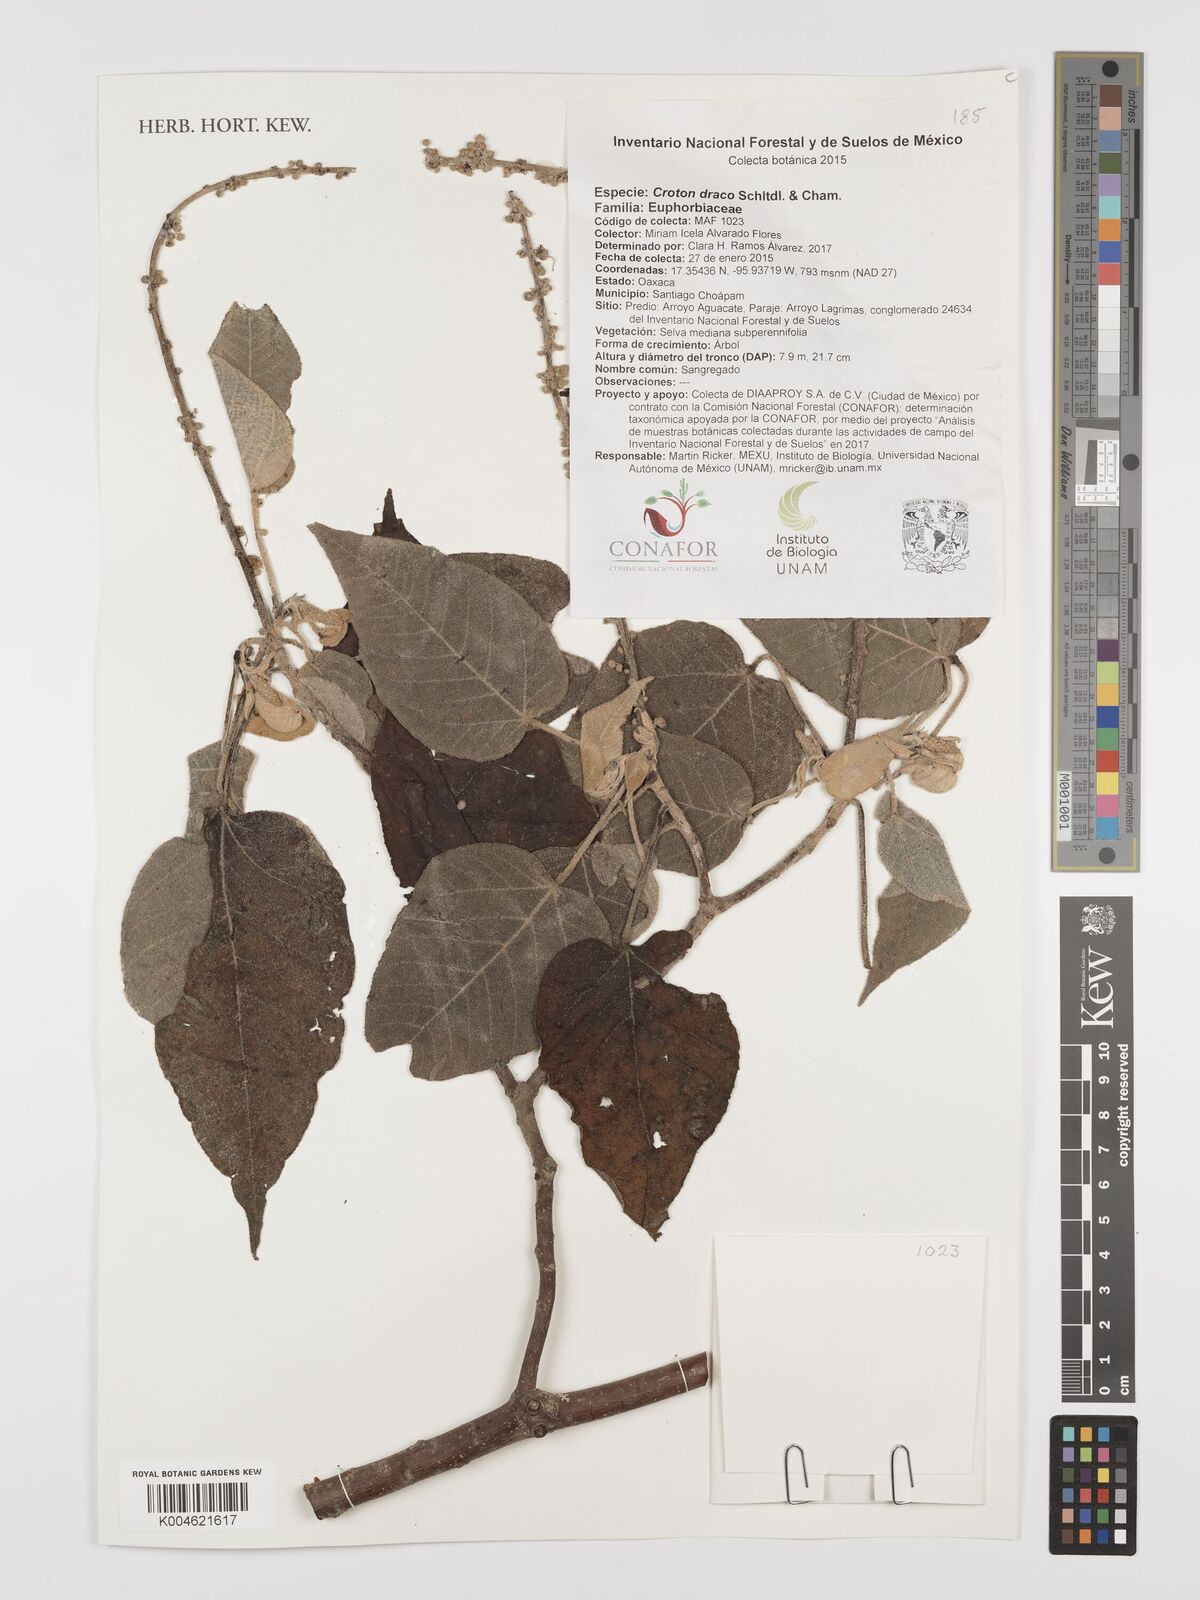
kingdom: Plantae
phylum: Tracheophyta
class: Magnoliopsida
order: Malpighiales
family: Euphorbiaceae
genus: Croton
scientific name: Croton draco
